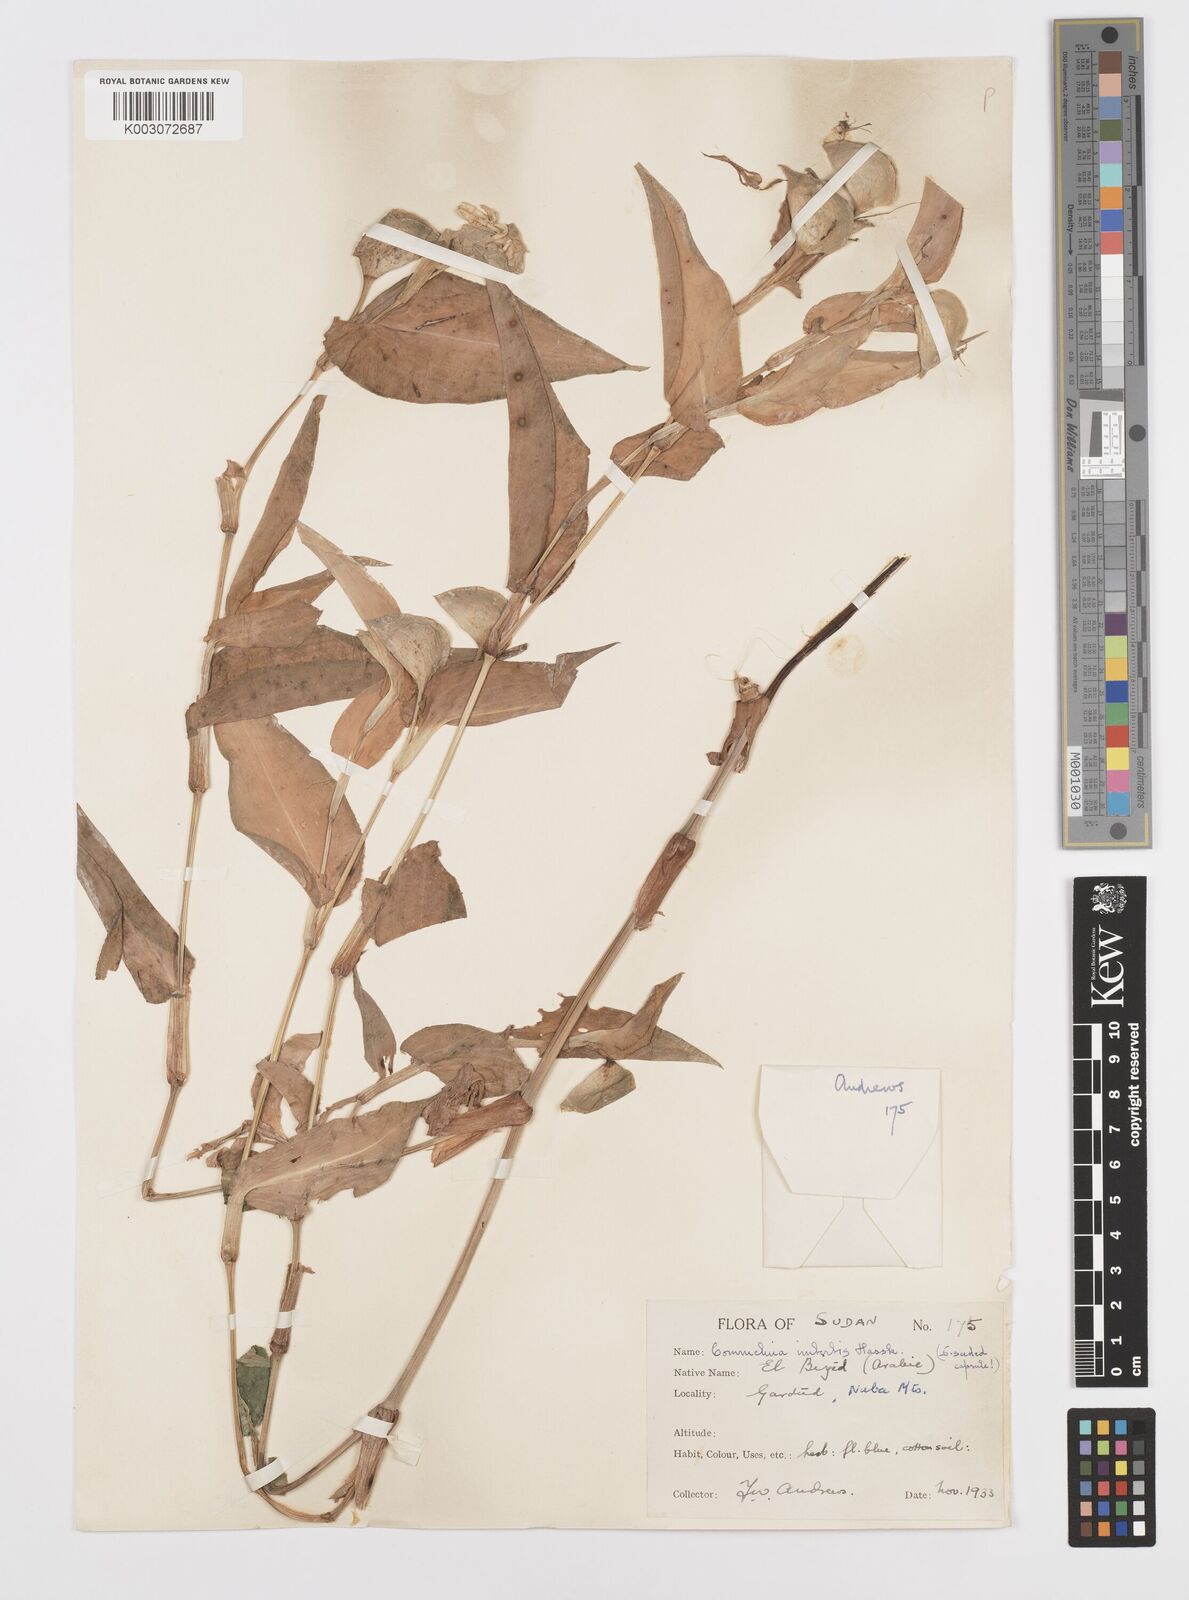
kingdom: Plantae
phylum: Tracheophyta
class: Liliopsida
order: Commelinales
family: Commelinaceae
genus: Commelina
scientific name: Commelina imberbis
